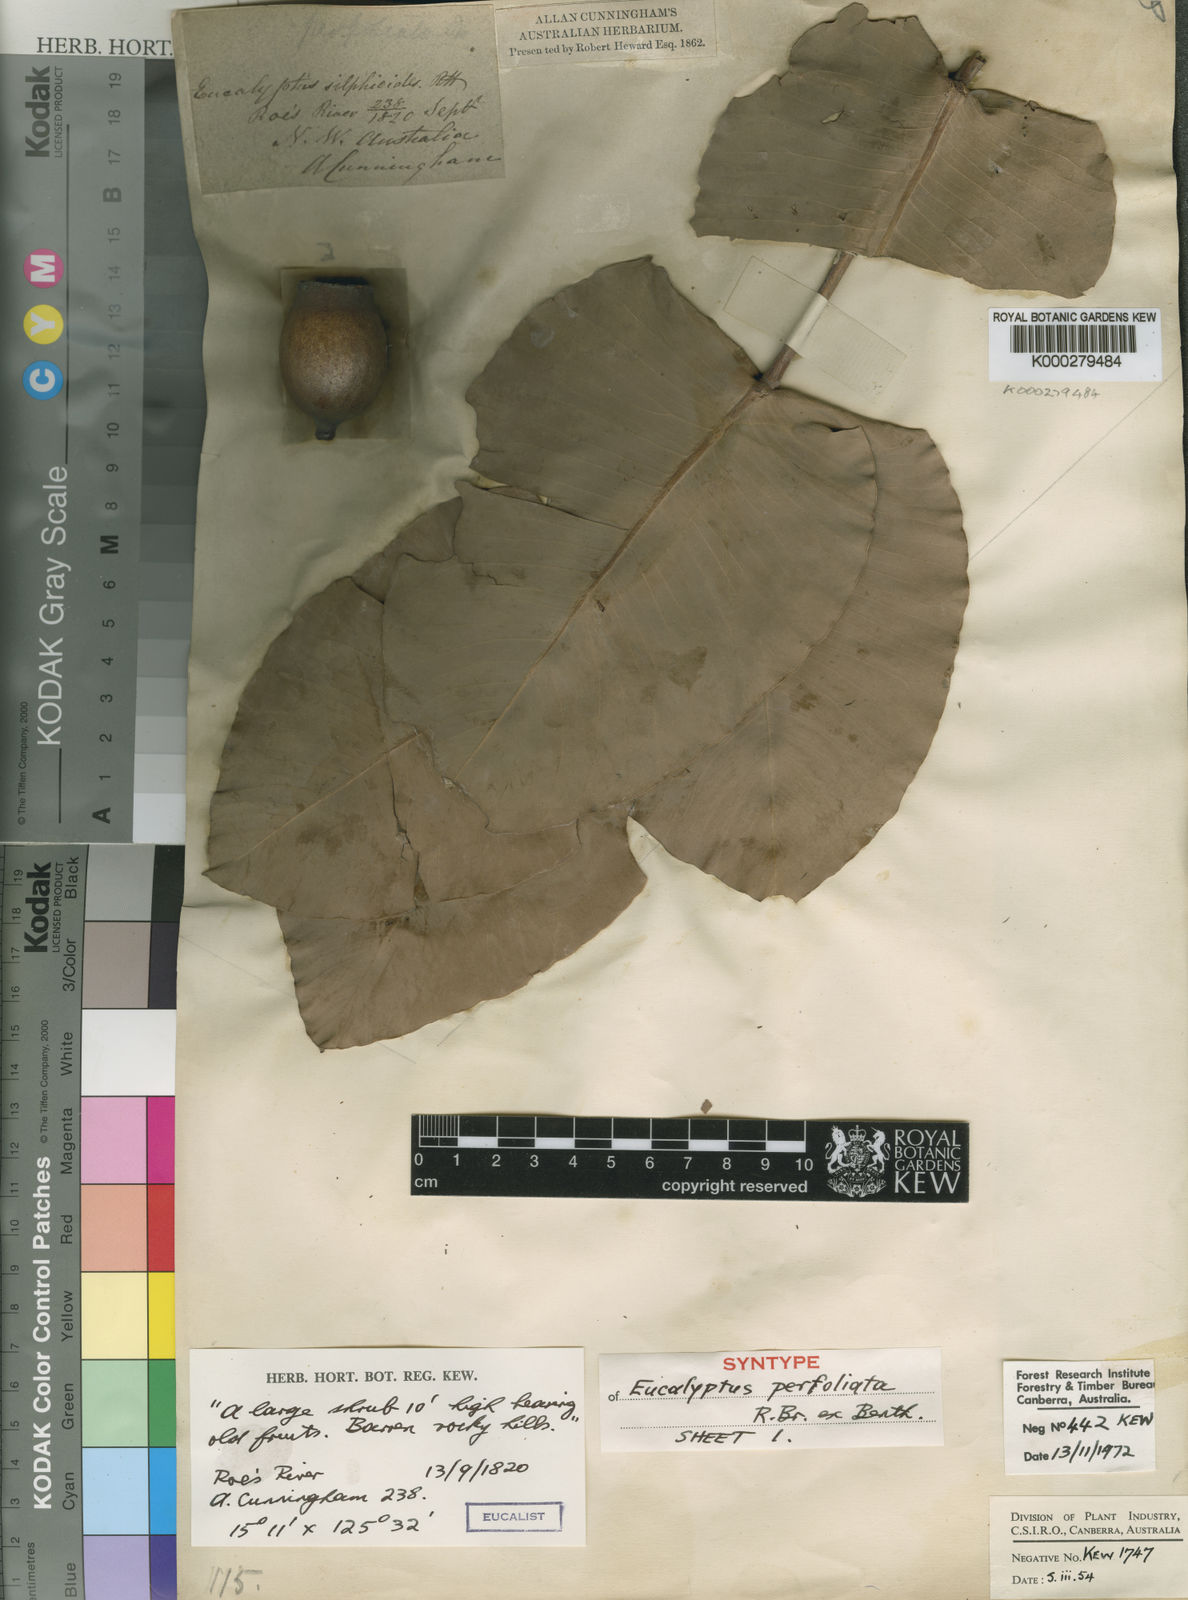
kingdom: Plantae
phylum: Tracheophyta
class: Magnoliopsida
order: Myrtales
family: Myrtaceae
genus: Corymbia
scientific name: Corymbia cadophora
